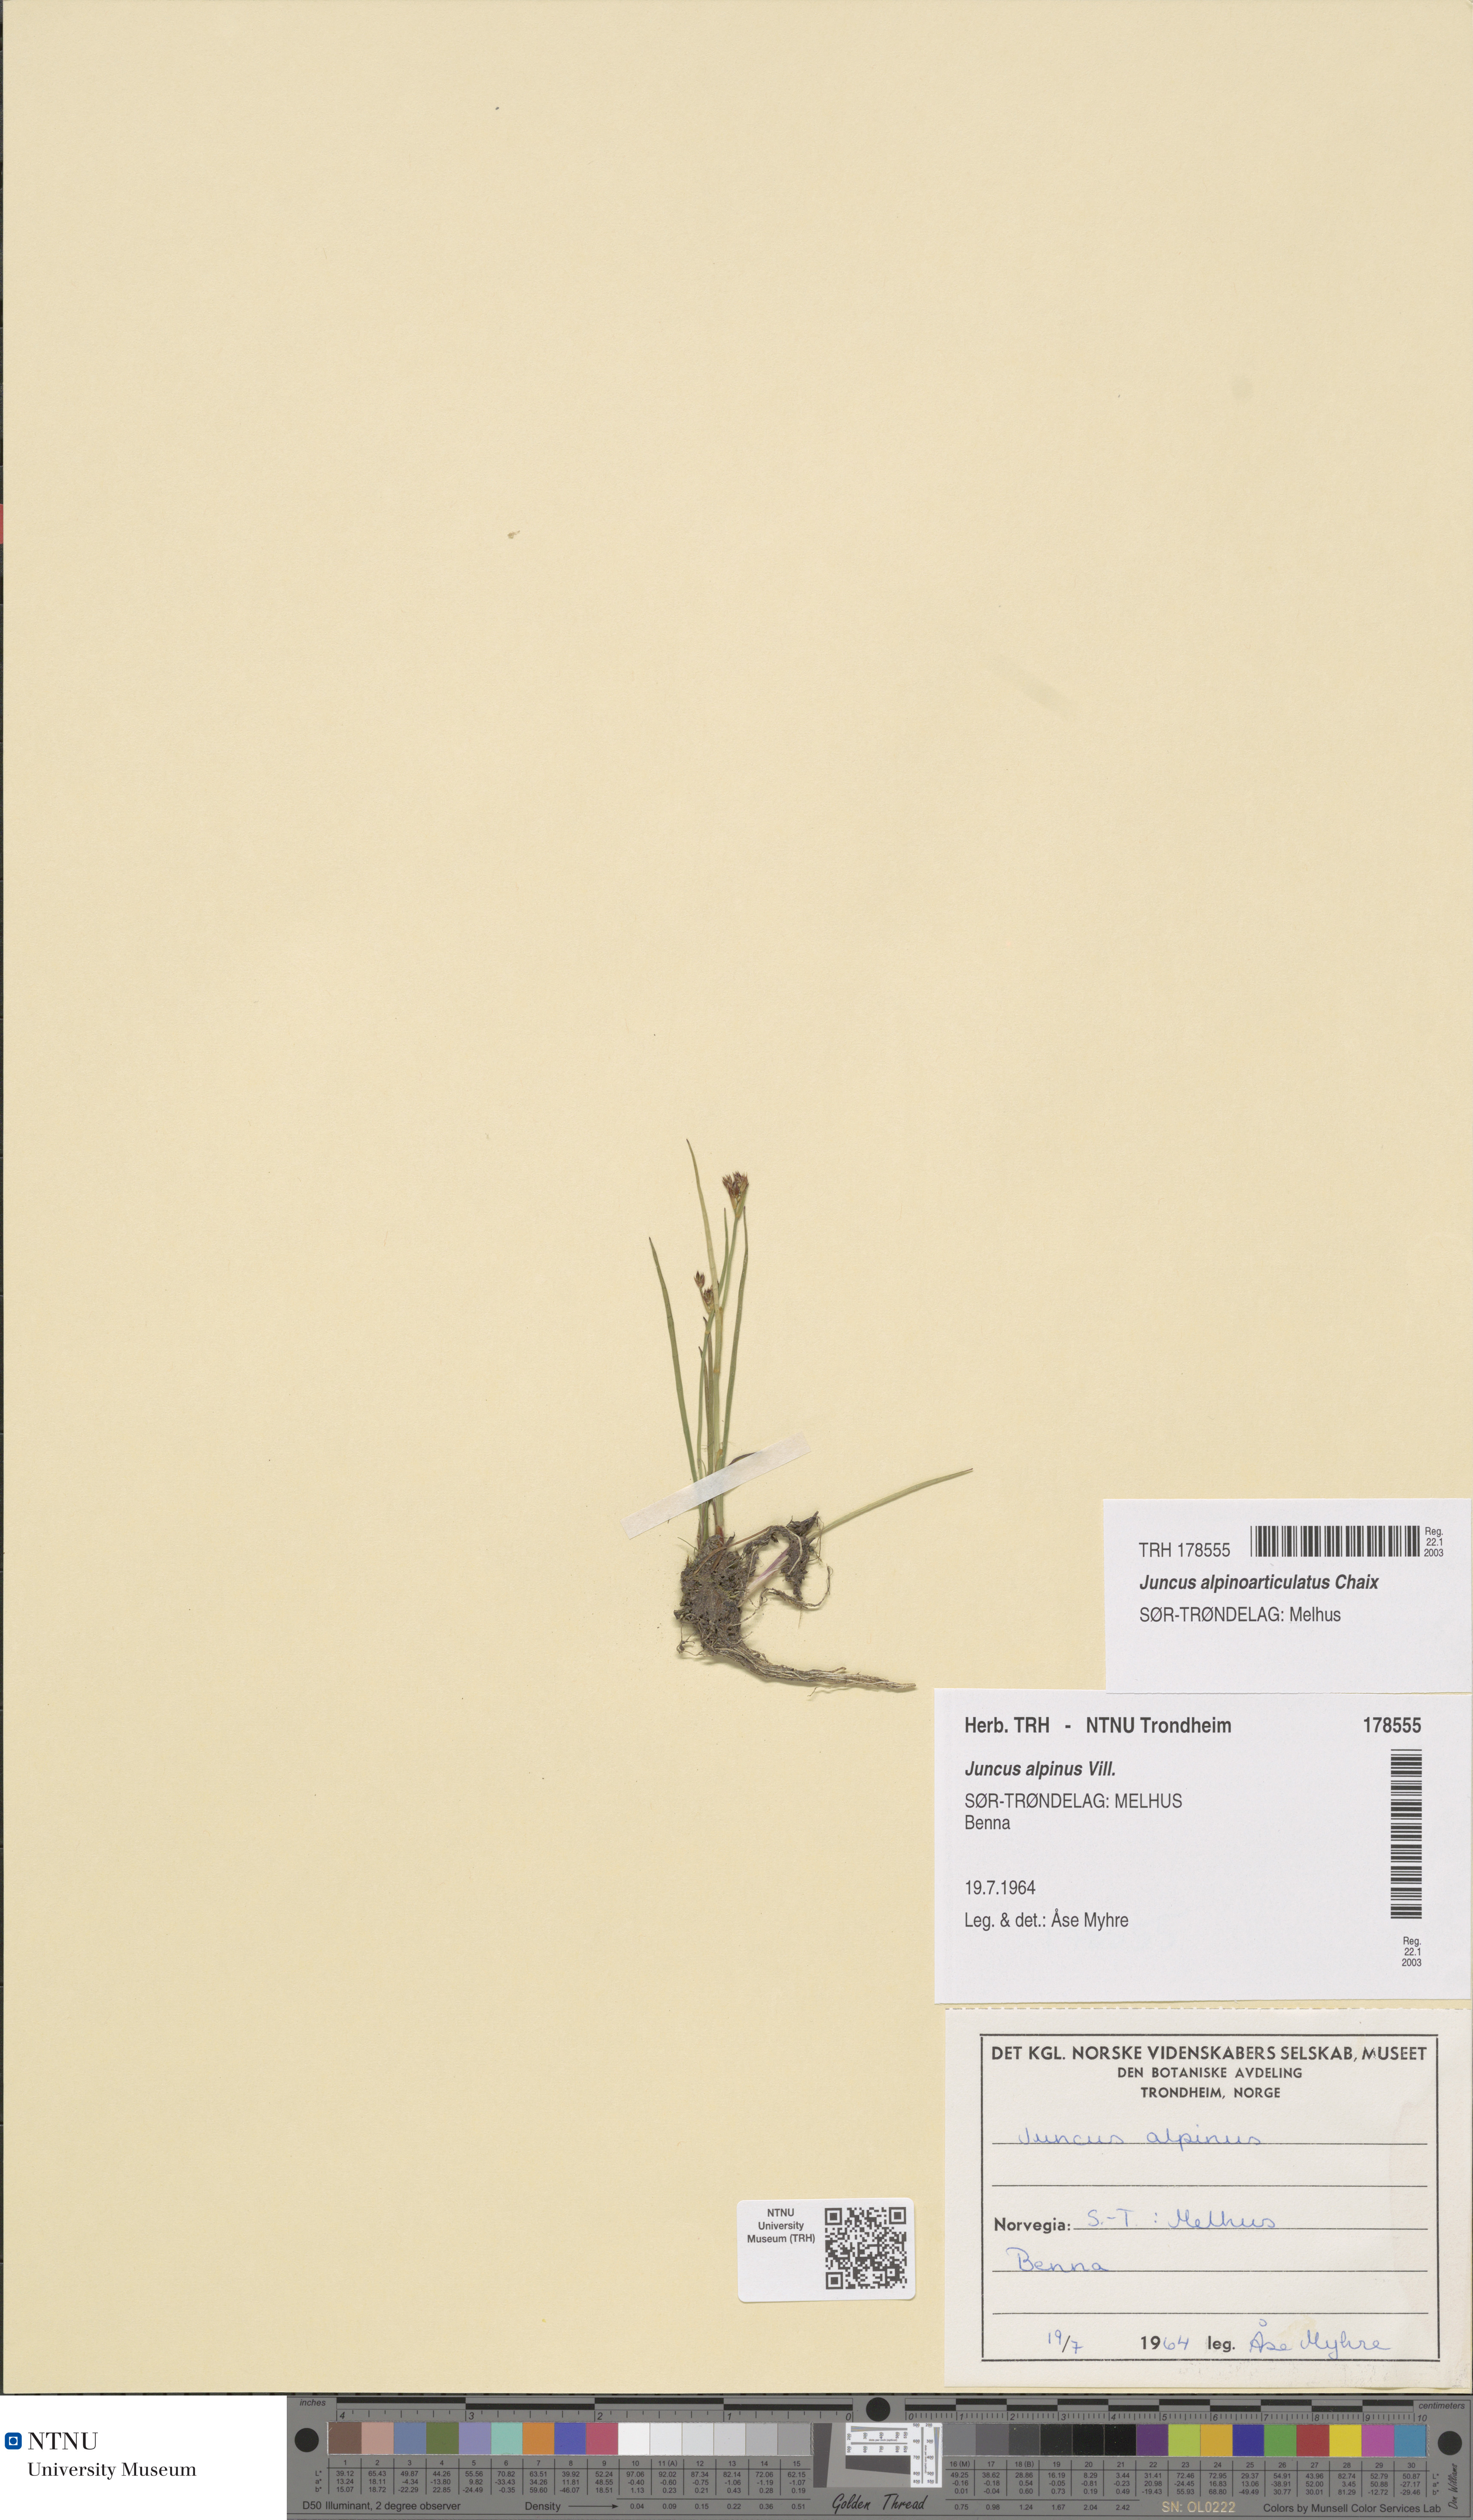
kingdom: Plantae
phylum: Tracheophyta
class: Liliopsida
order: Poales
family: Juncaceae
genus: Juncus
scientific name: Juncus alpinoarticulatus
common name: Alpine rush
